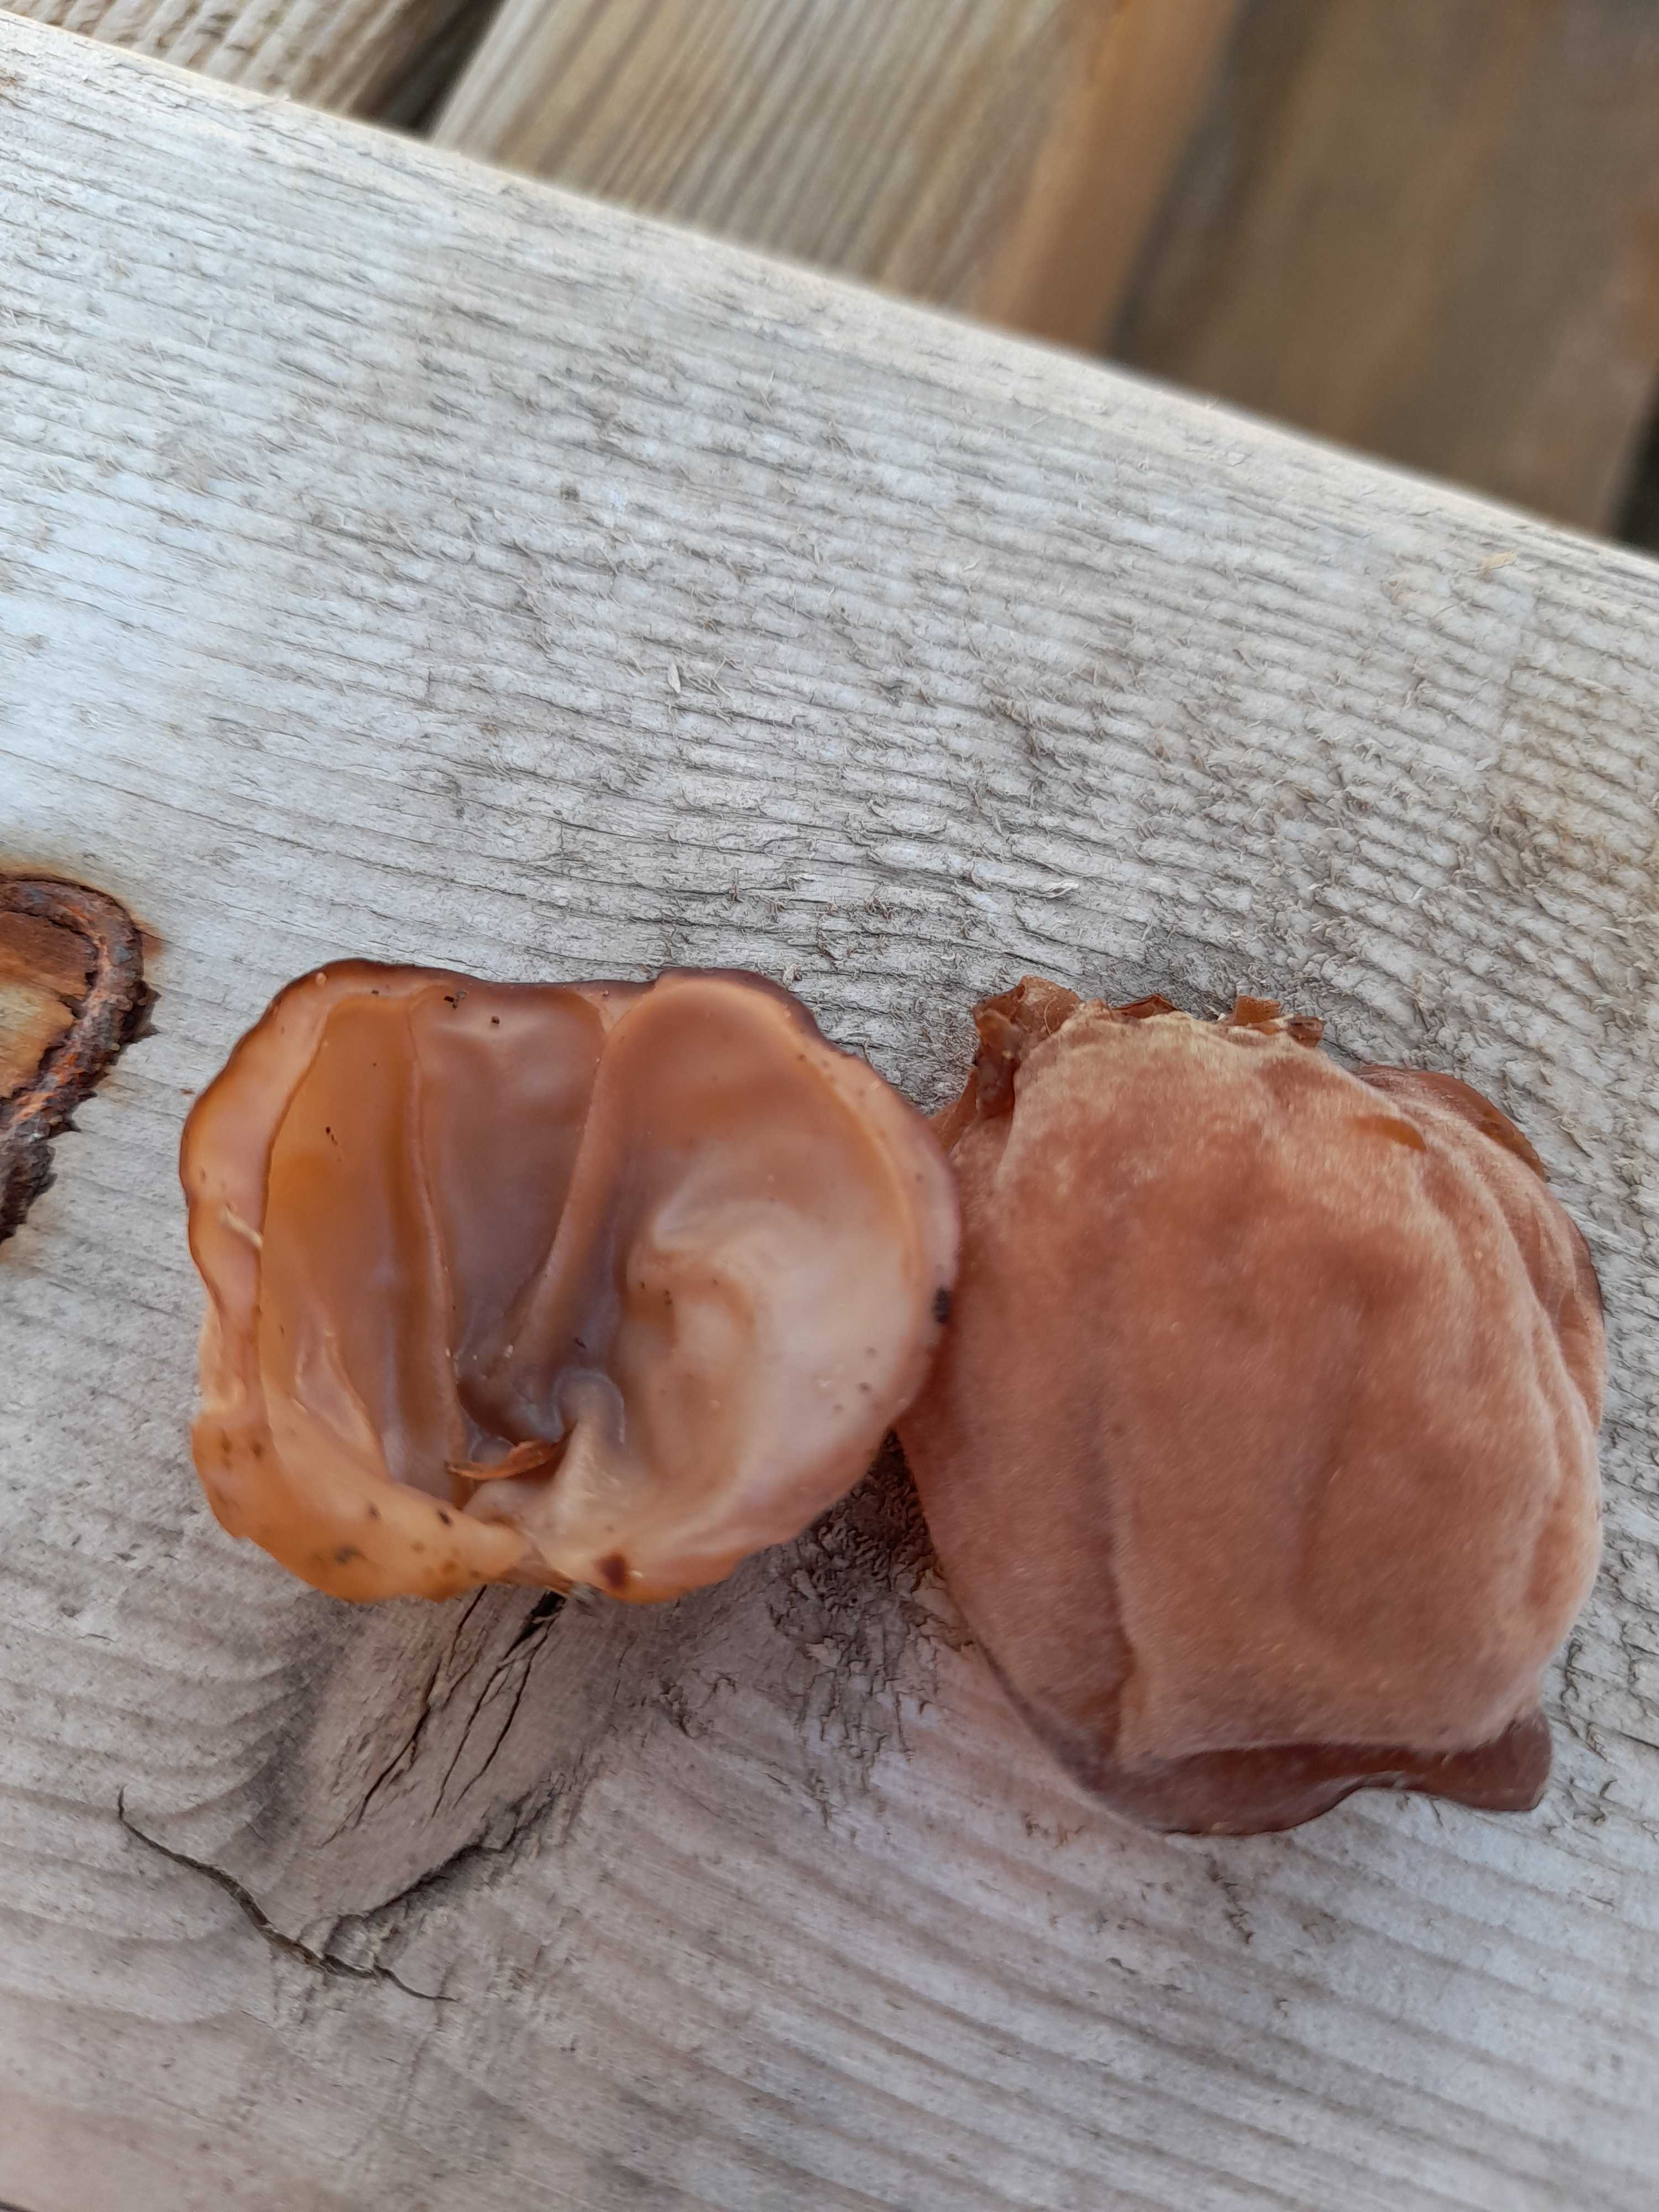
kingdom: Fungi
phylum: Basidiomycota
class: Agaricomycetes
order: Auriculariales
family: Auriculariaceae
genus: Auricularia
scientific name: Auricularia auricula-judae
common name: almindelig judasøre
